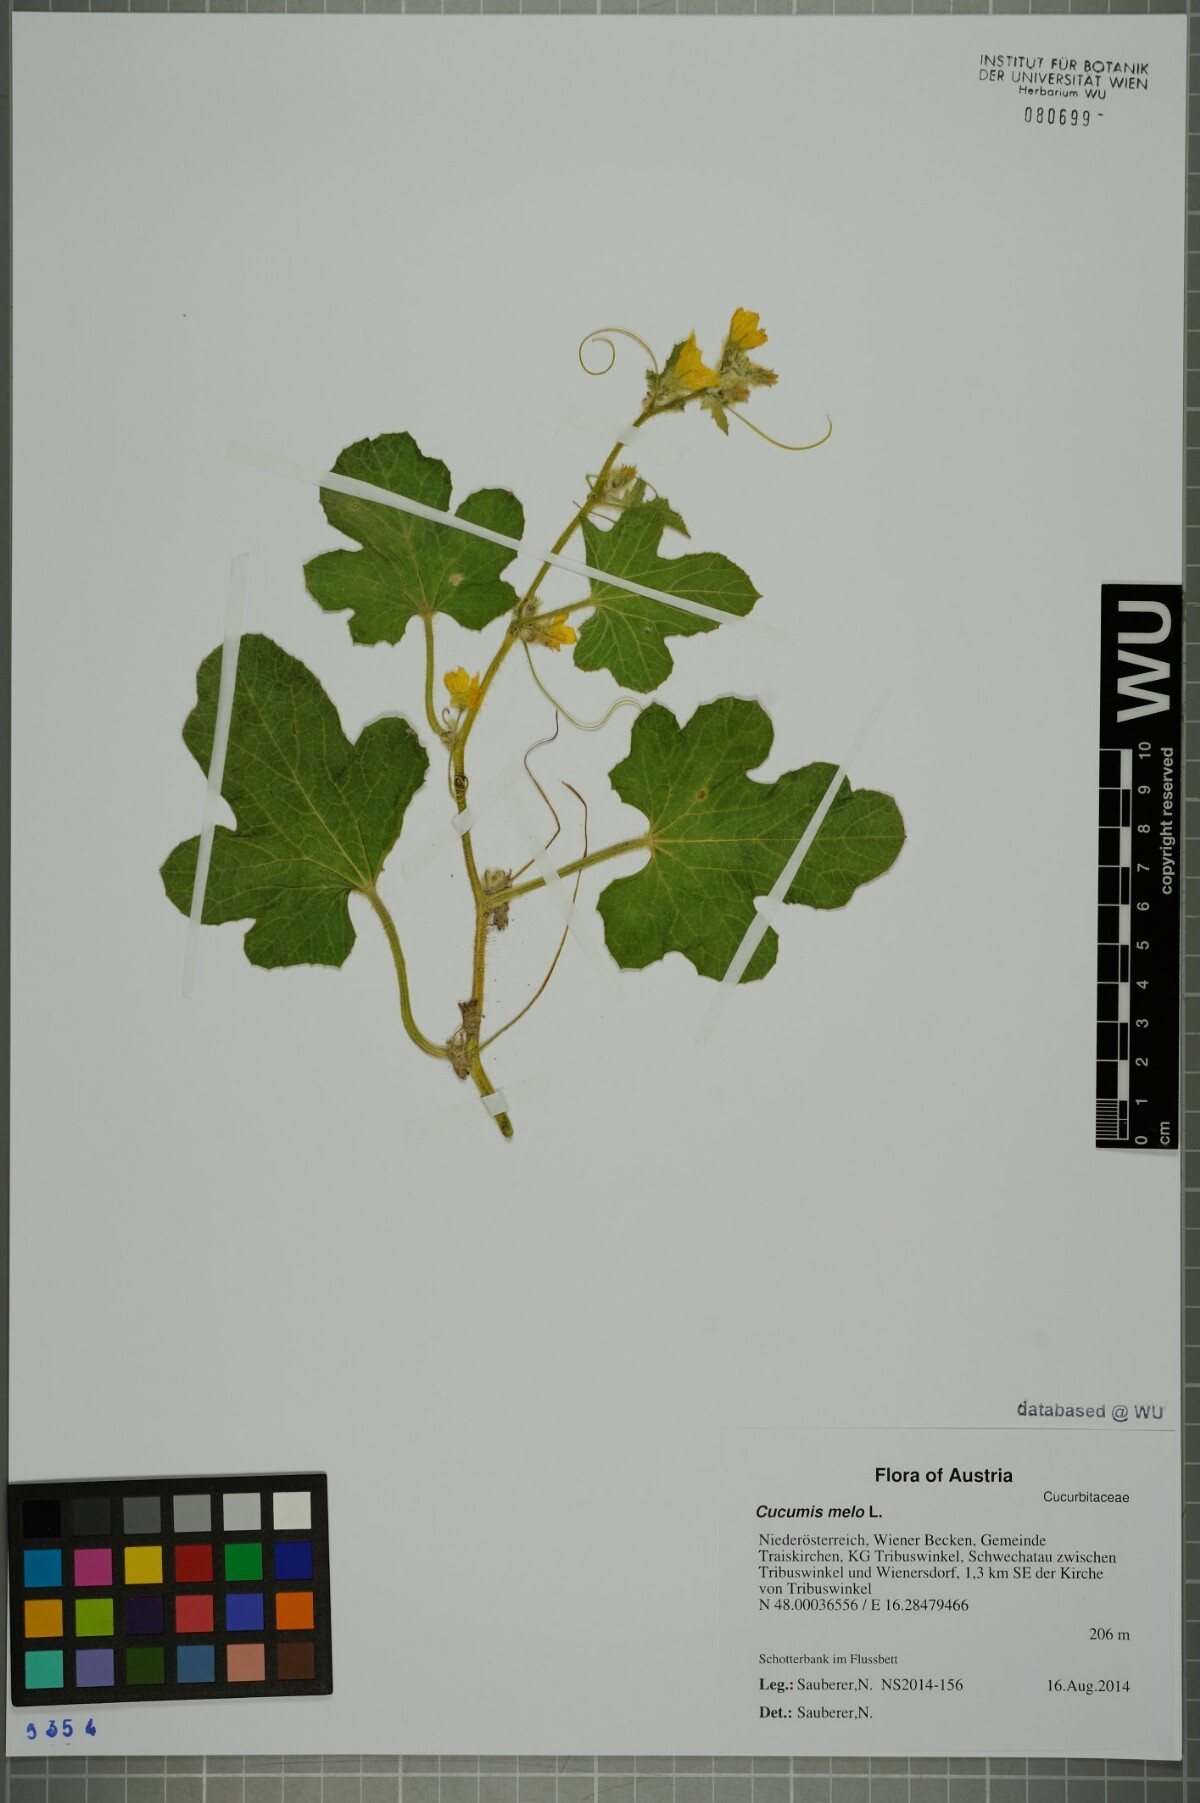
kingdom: Plantae
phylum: Tracheophyta
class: Magnoliopsida
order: Cucurbitales
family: Cucurbitaceae
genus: Cucumis
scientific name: Cucumis melo
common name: Melon
